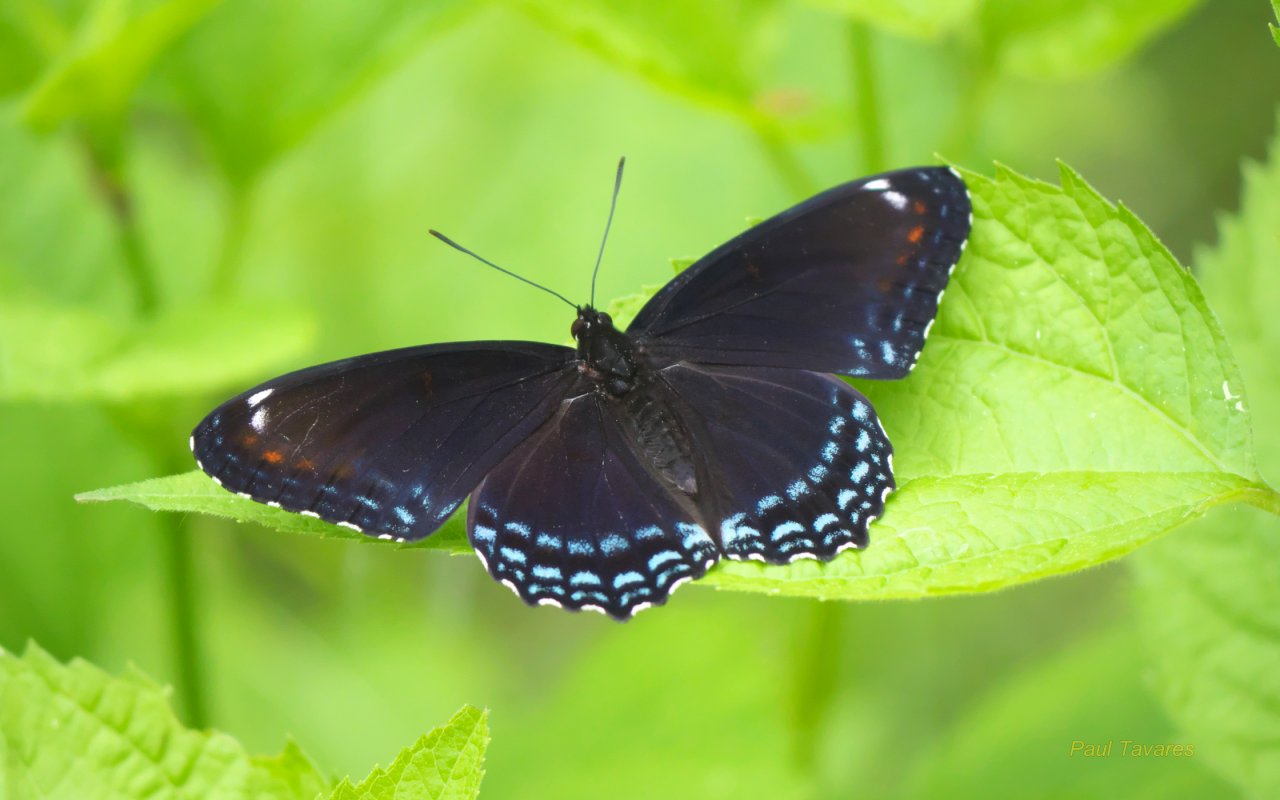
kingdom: Animalia
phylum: Arthropoda
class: Insecta
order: Lepidoptera
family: Nymphalidae
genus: Limenitis
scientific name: Limenitis astyanax
